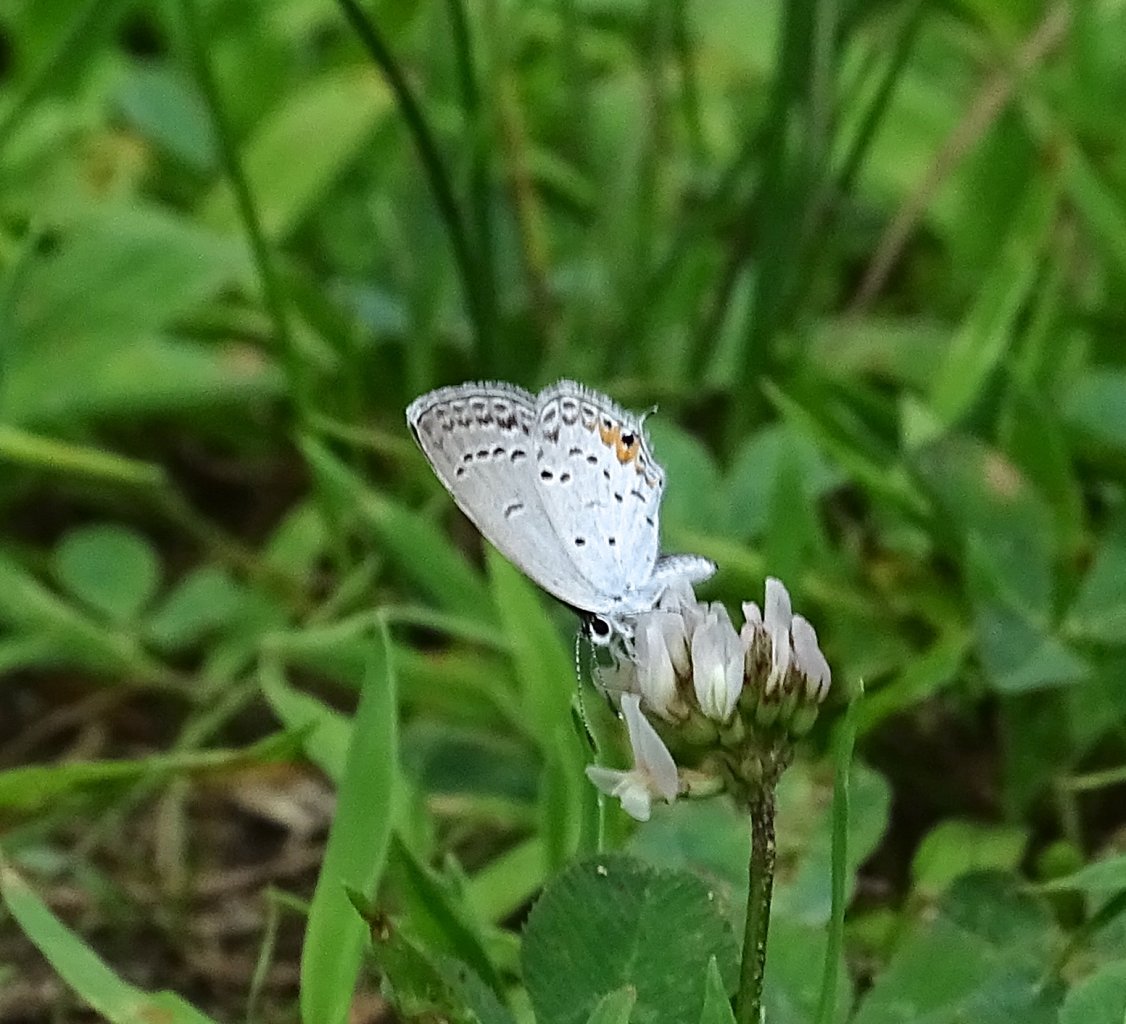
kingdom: Animalia
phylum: Arthropoda
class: Insecta
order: Lepidoptera
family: Lycaenidae
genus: Elkalyce
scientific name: Elkalyce comyntas
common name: Eastern Tailed-Blue
